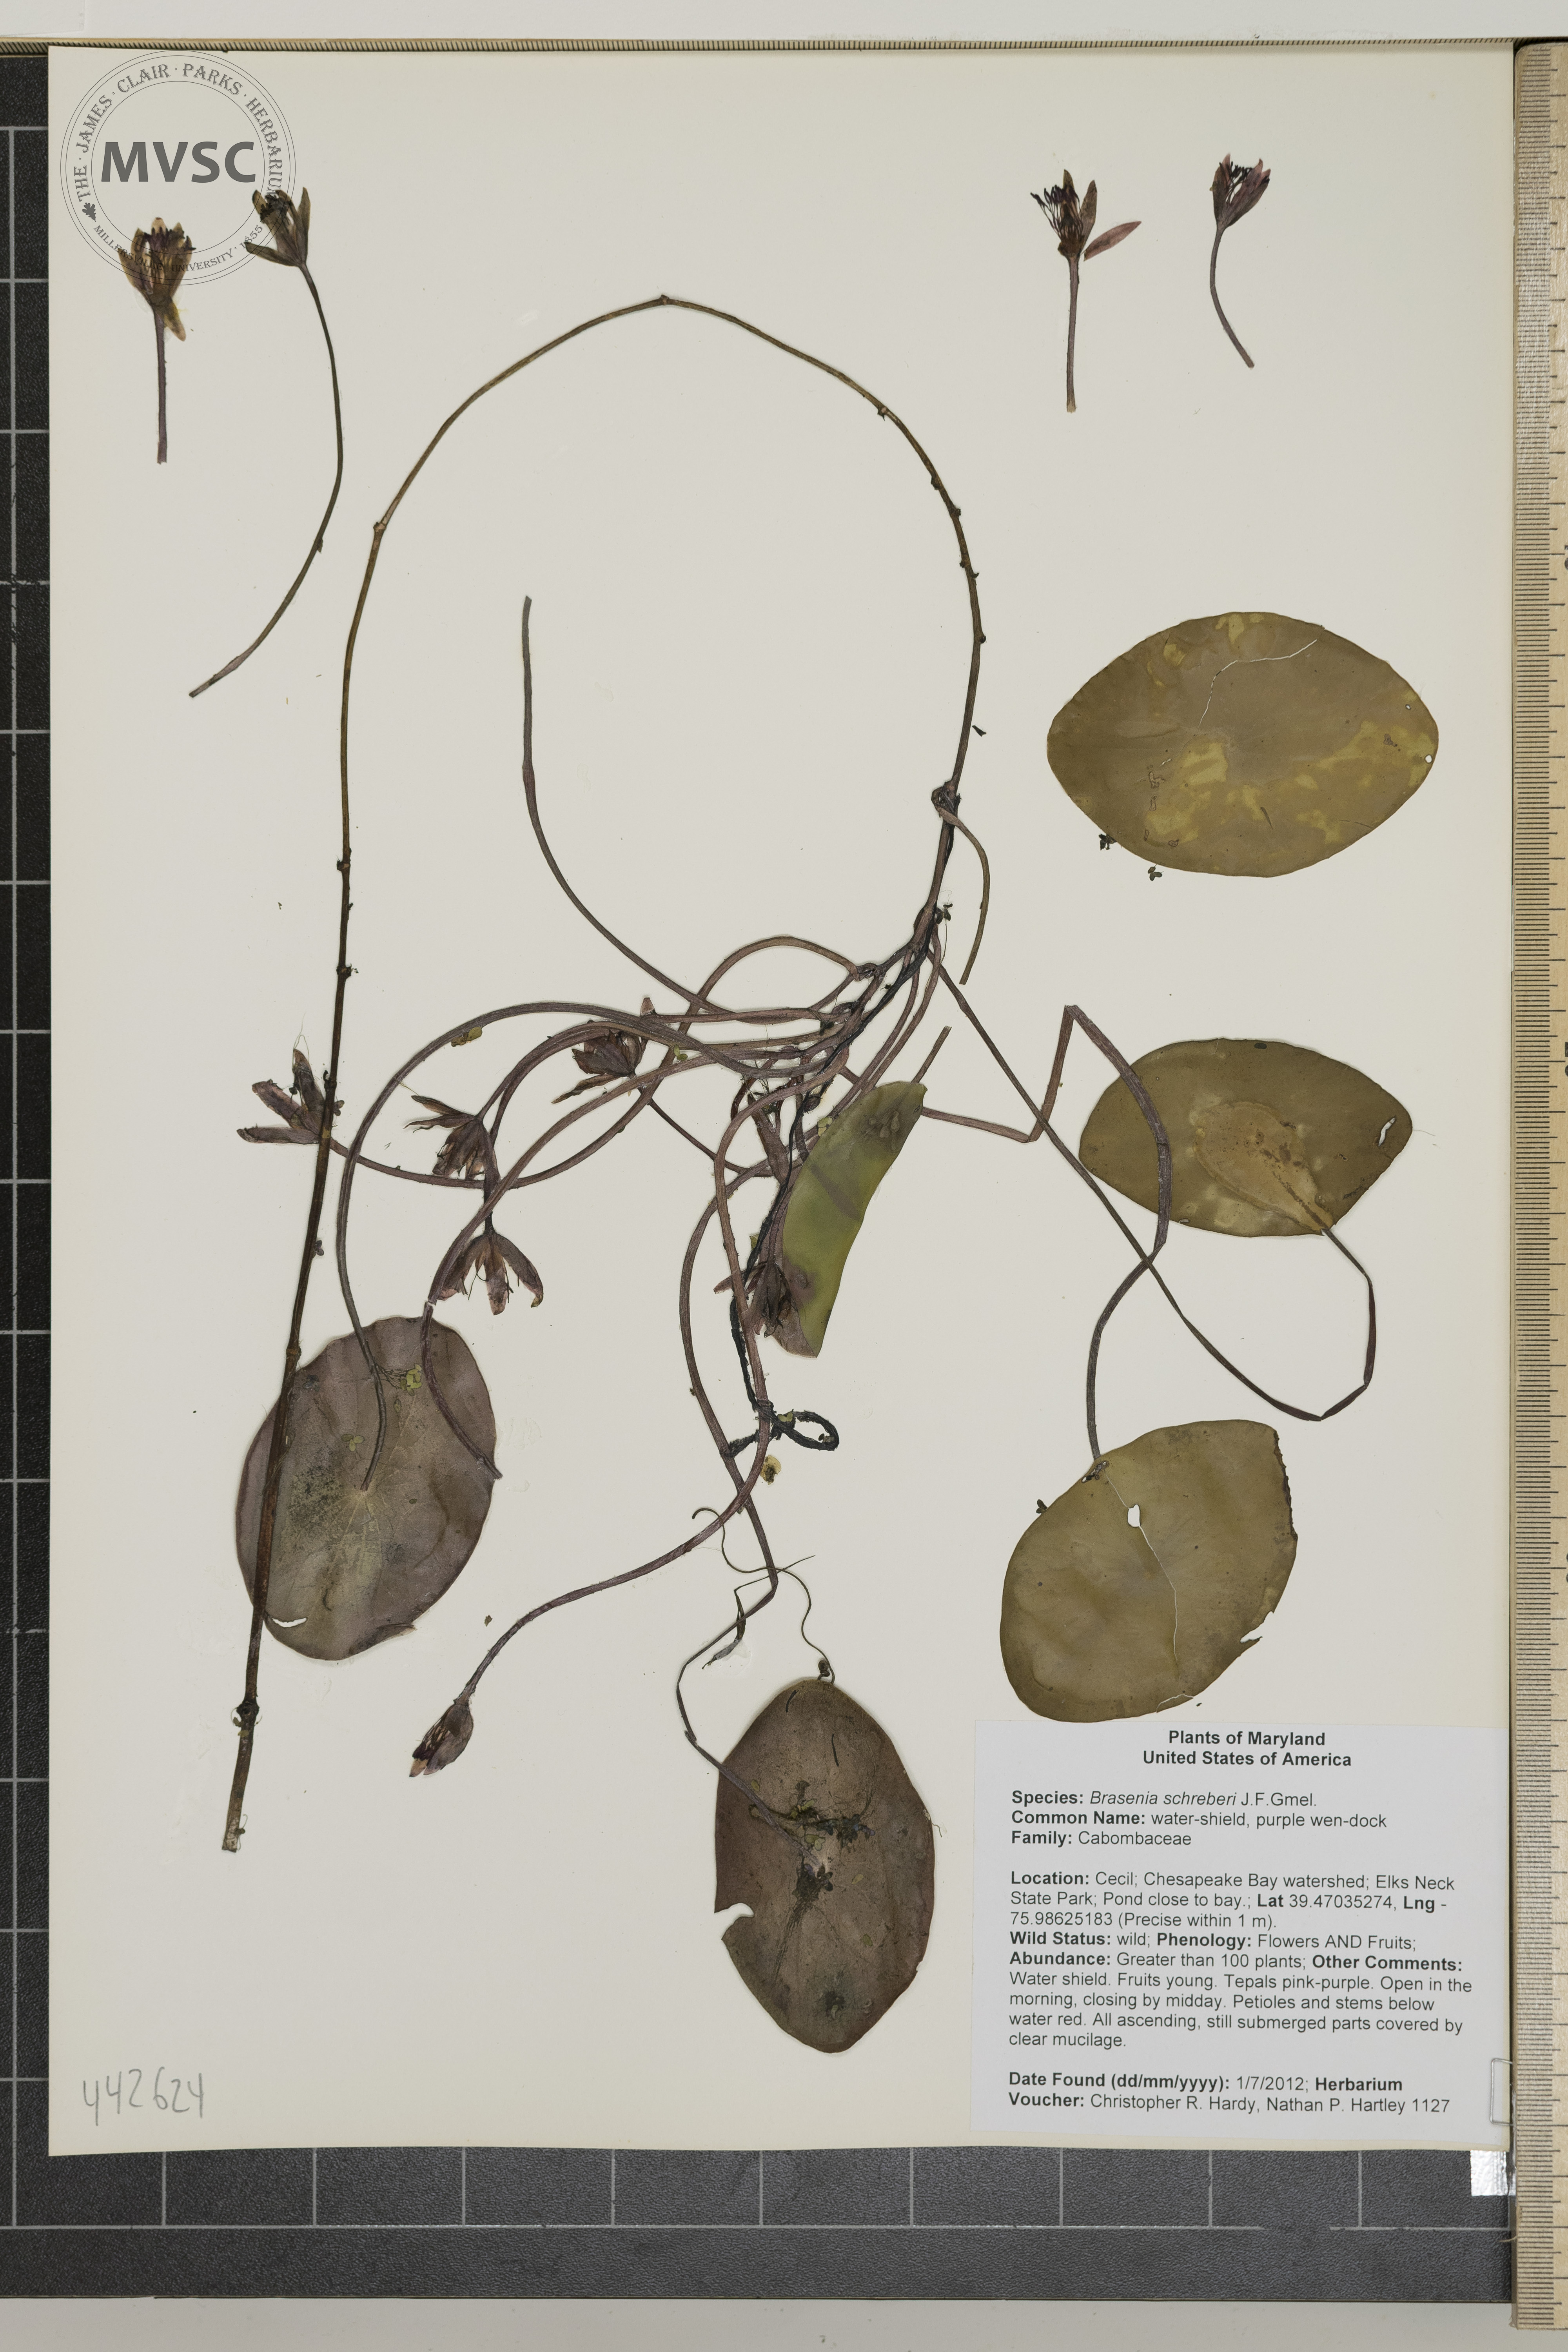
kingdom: Plantae
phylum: Tracheophyta
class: Magnoliopsida
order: Nymphaeales
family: Cabombaceae
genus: Brasenia
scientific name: Brasenia schreberi
